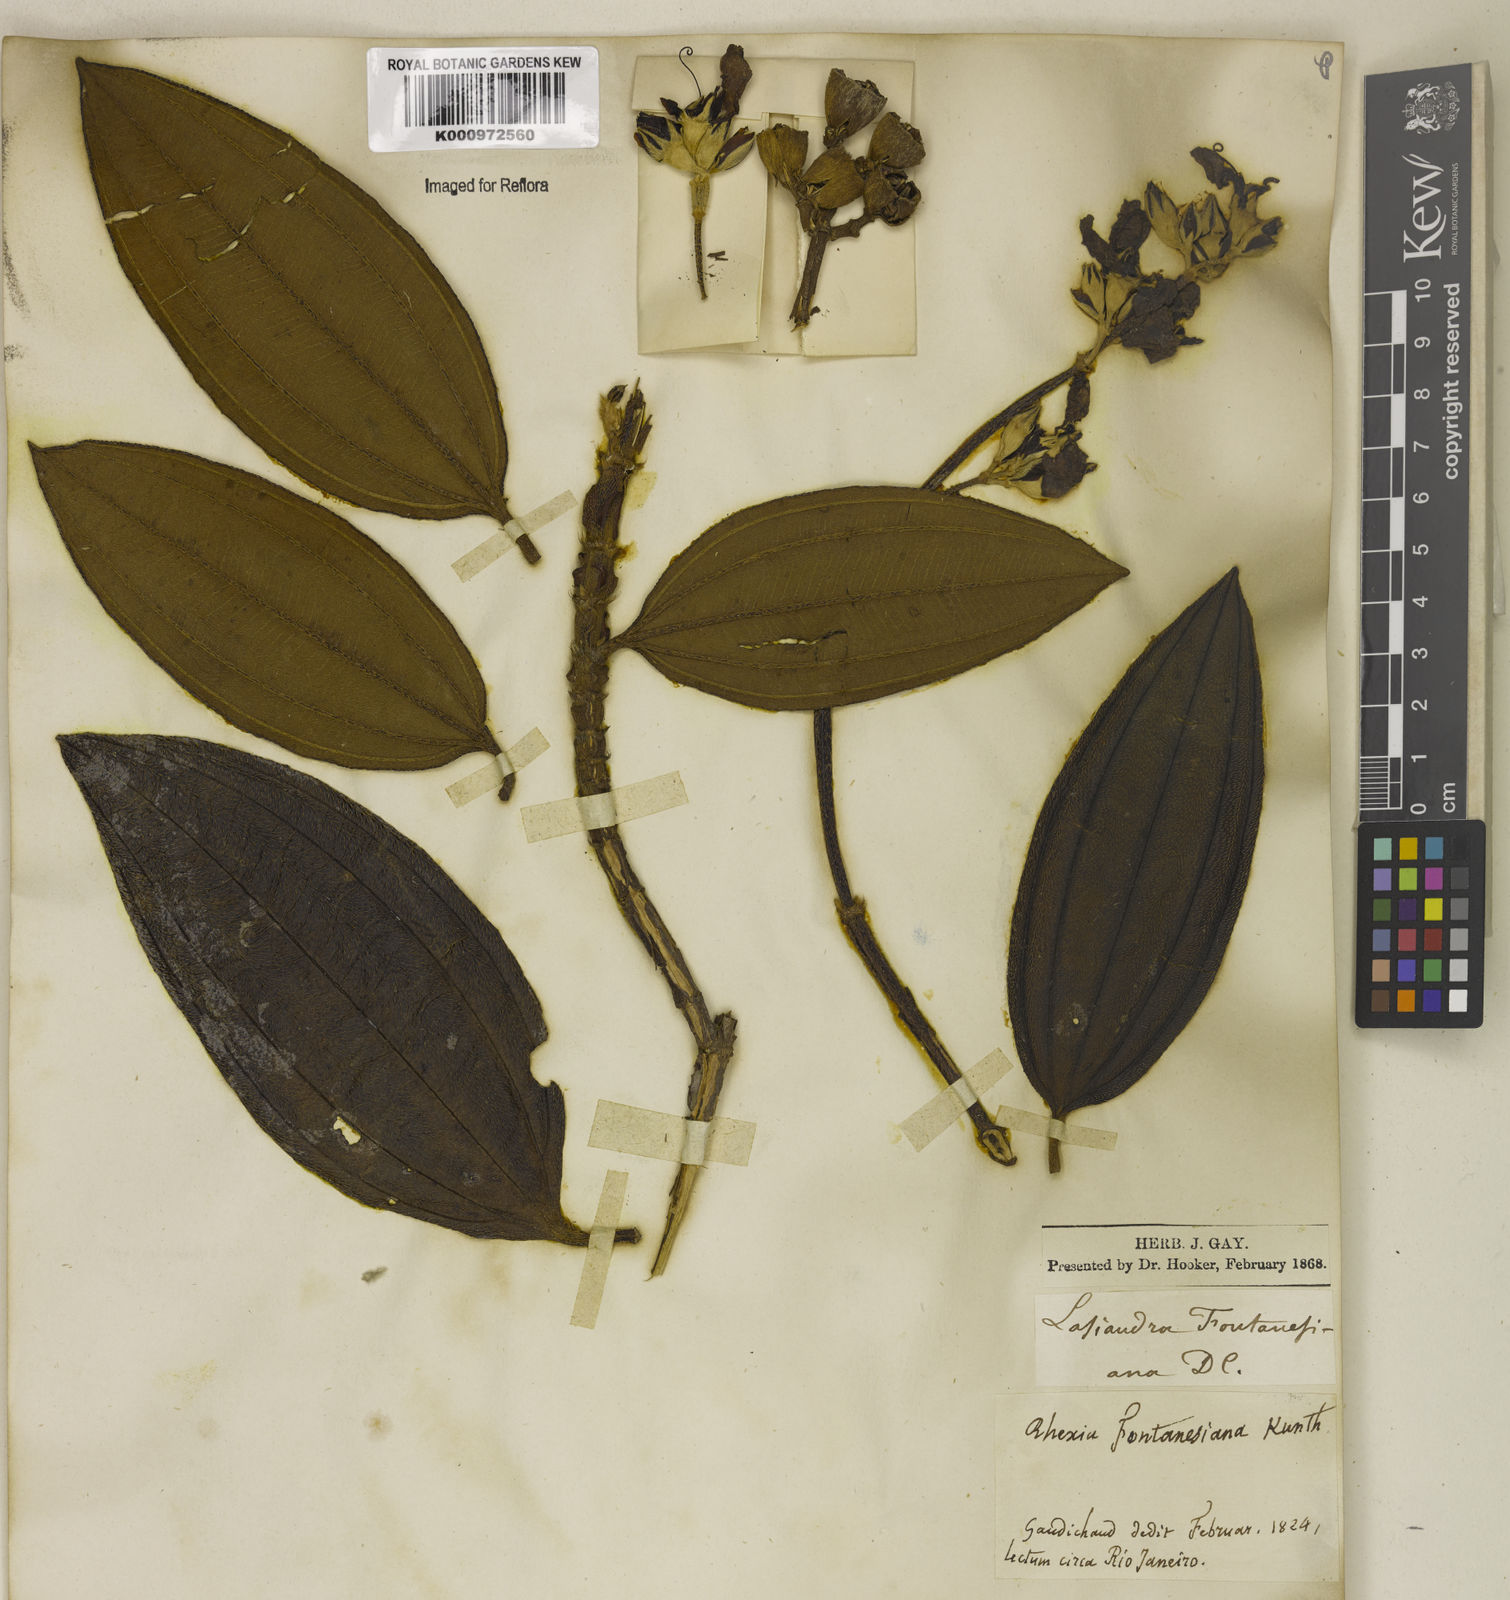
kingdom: Plantae
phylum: Tracheophyta
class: Magnoliopsida
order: Myrtales
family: Melastomataceae
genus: Pleroma
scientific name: Pleroma granulosum
